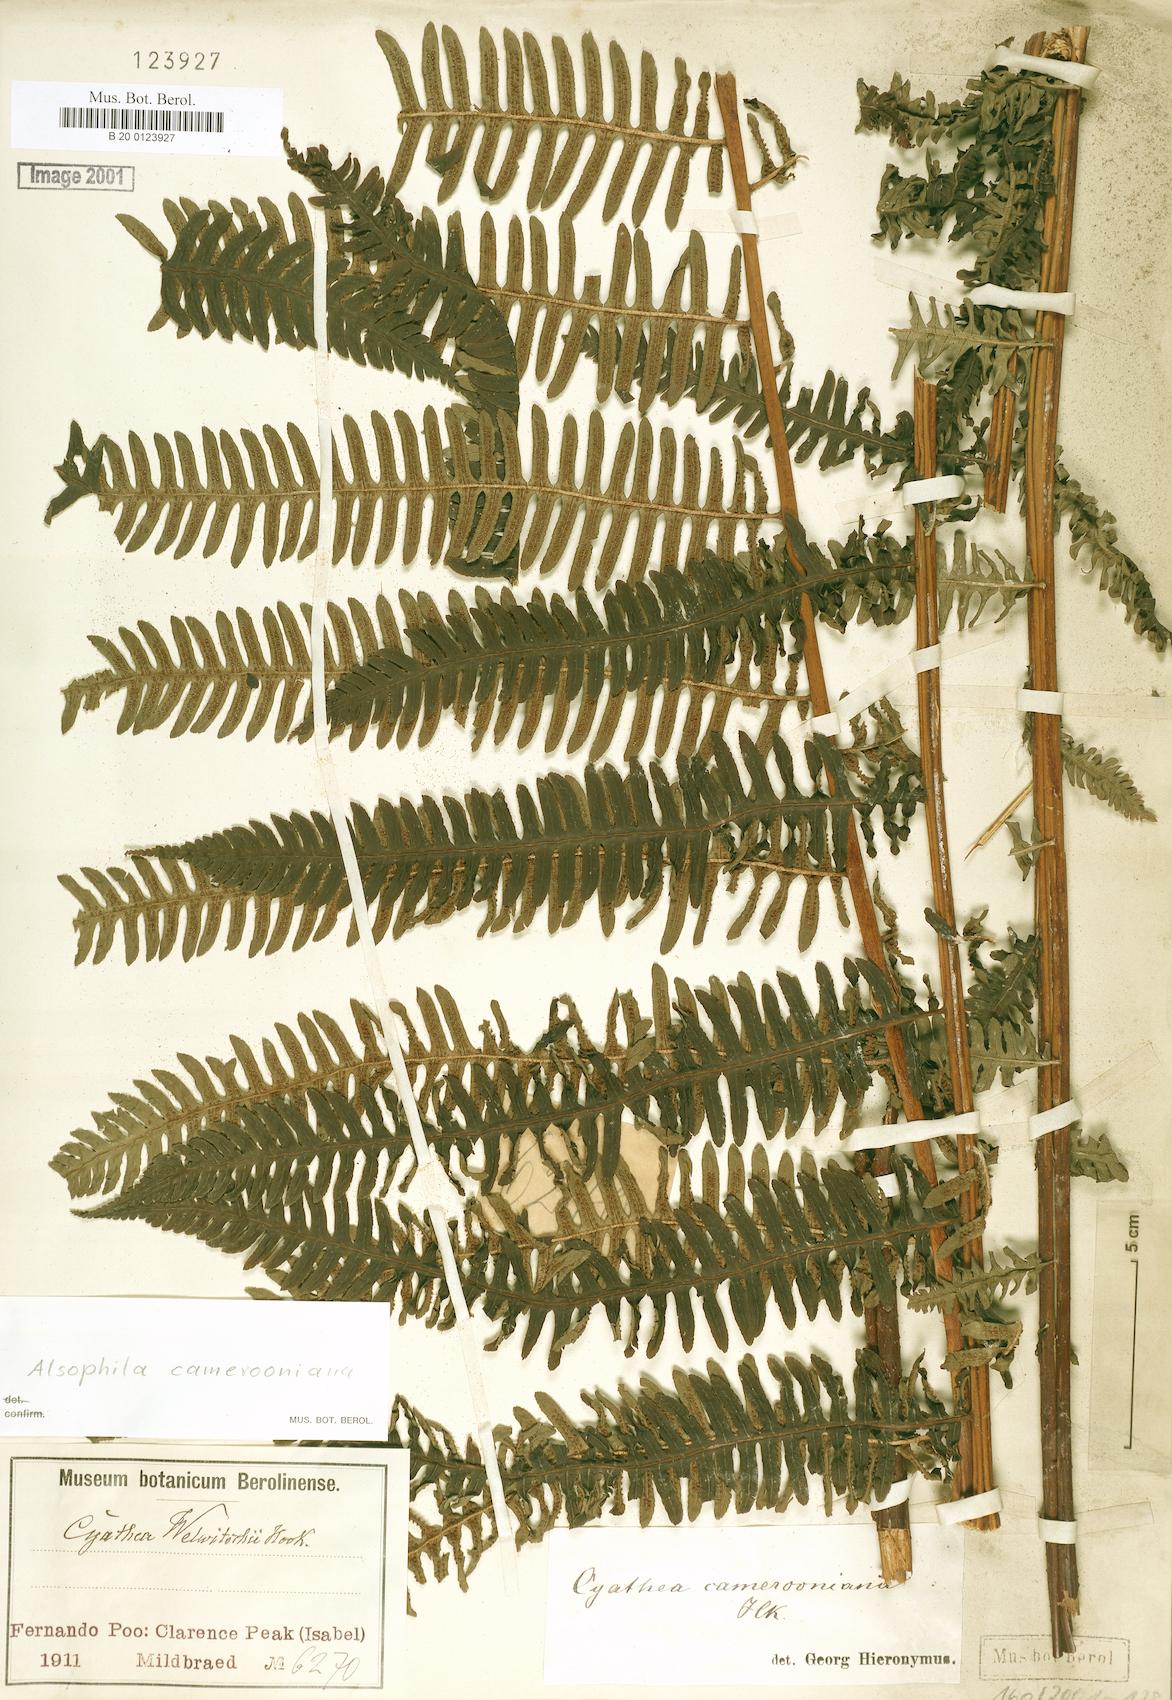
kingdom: Plantae
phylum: Tracheophyta
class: Polypodiopsida
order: Cyatheales
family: Cyatheaceae
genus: Alsophila
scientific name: Alsophila camerooniana
